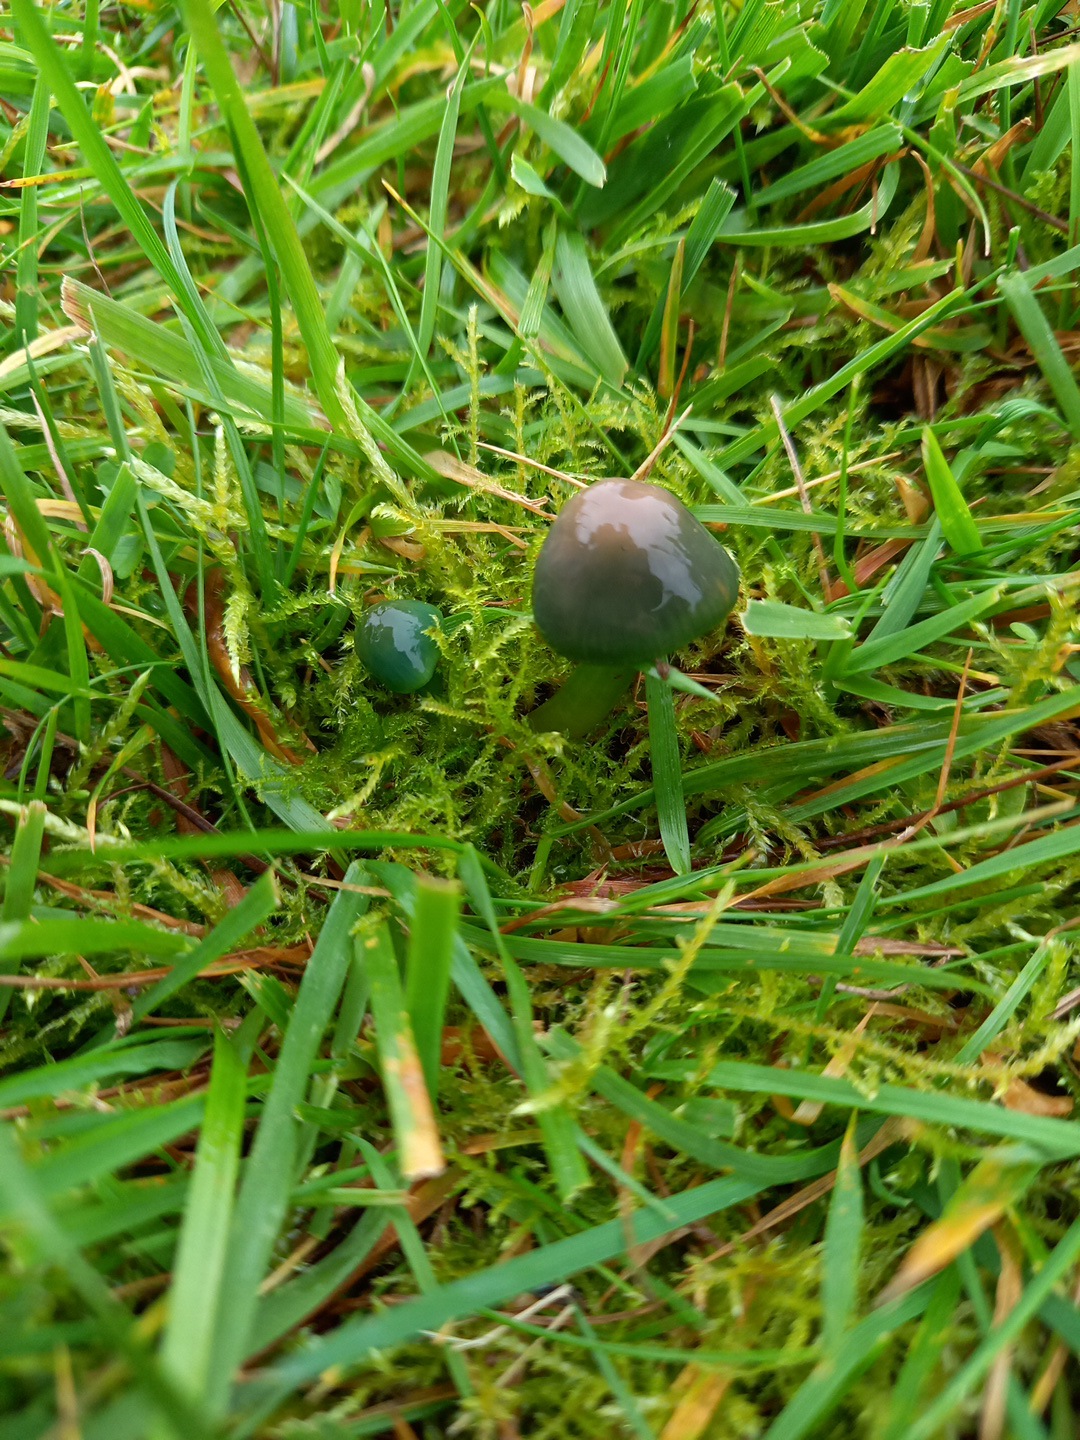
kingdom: Fungi
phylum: Basidiomycota
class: Agaricomycetes
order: Agaricales
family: Hygrophoraceae
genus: Gliophorus
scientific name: Gliophorus psittacinus
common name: papegøje-vokshat
